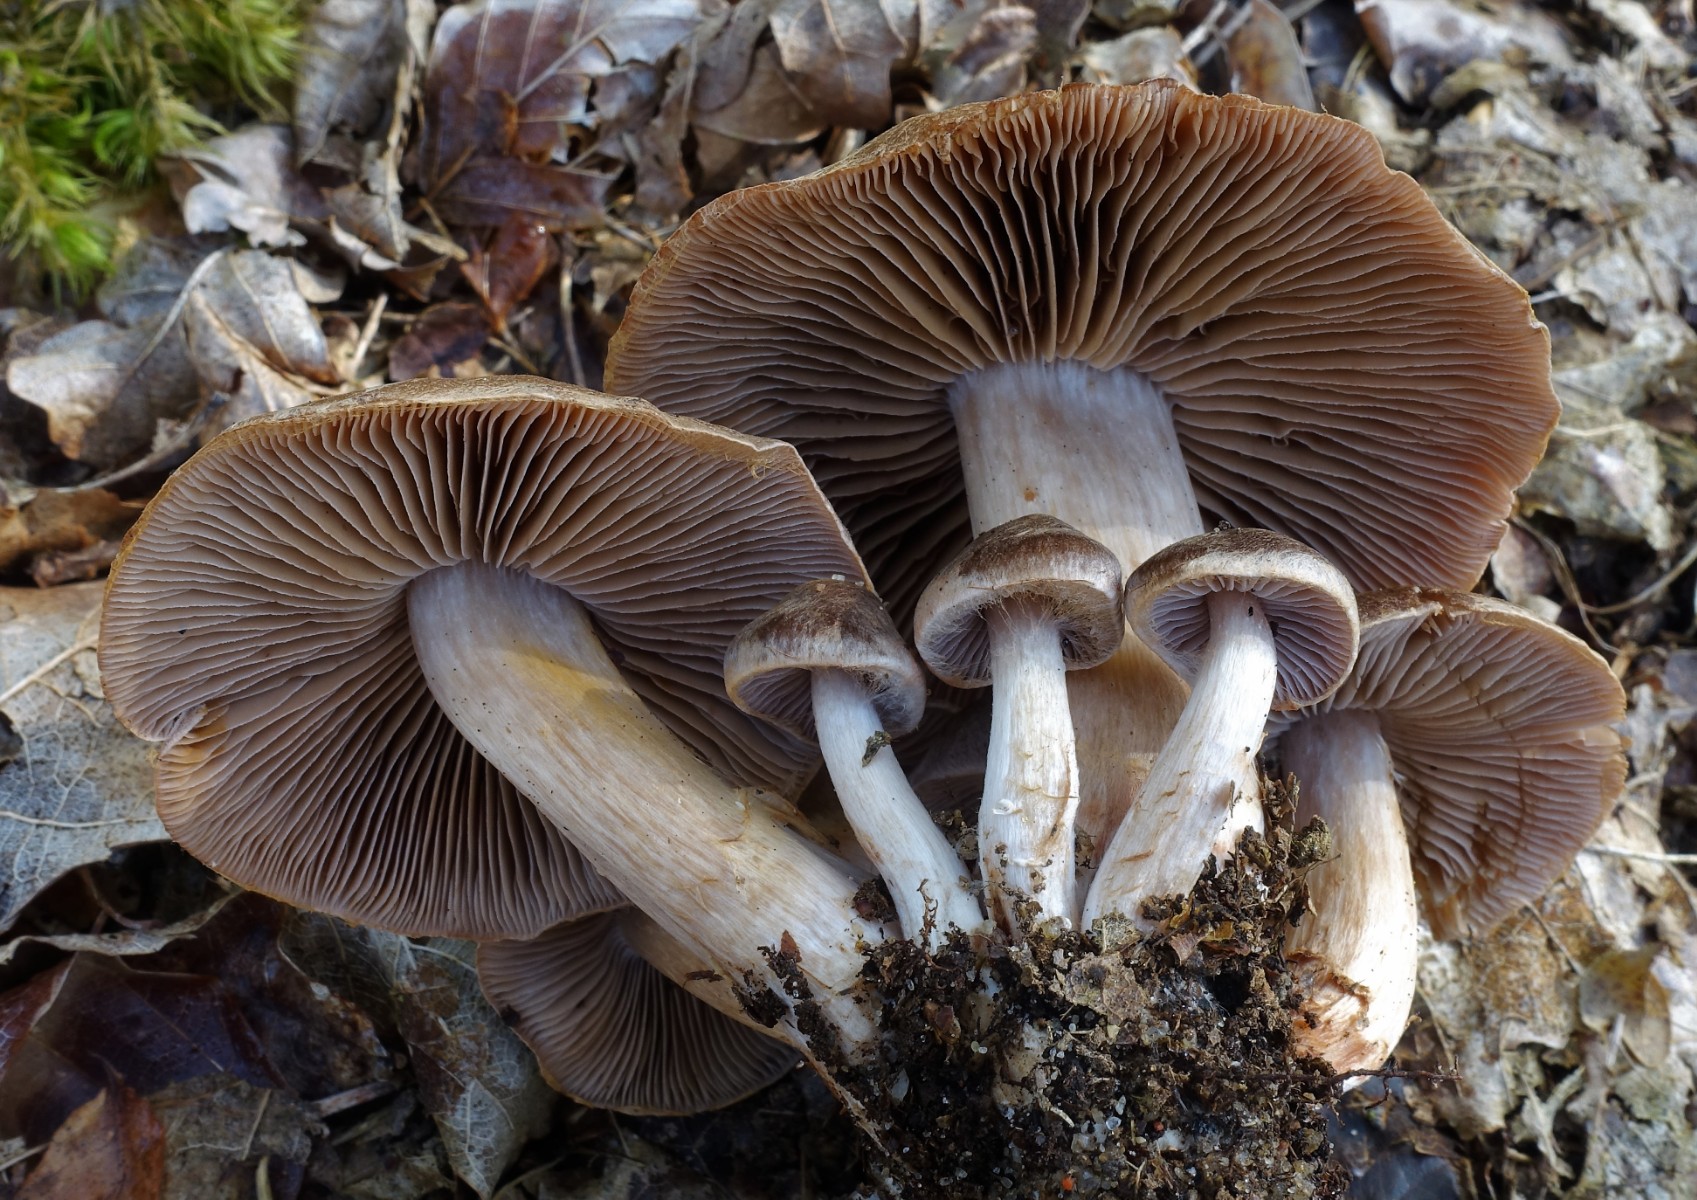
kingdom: Fungi
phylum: Basidiomycota
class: Agaricomycetes
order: Agaricales
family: Cortinariaceae
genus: Cortinarius
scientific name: Cortinarius inconspicuus
